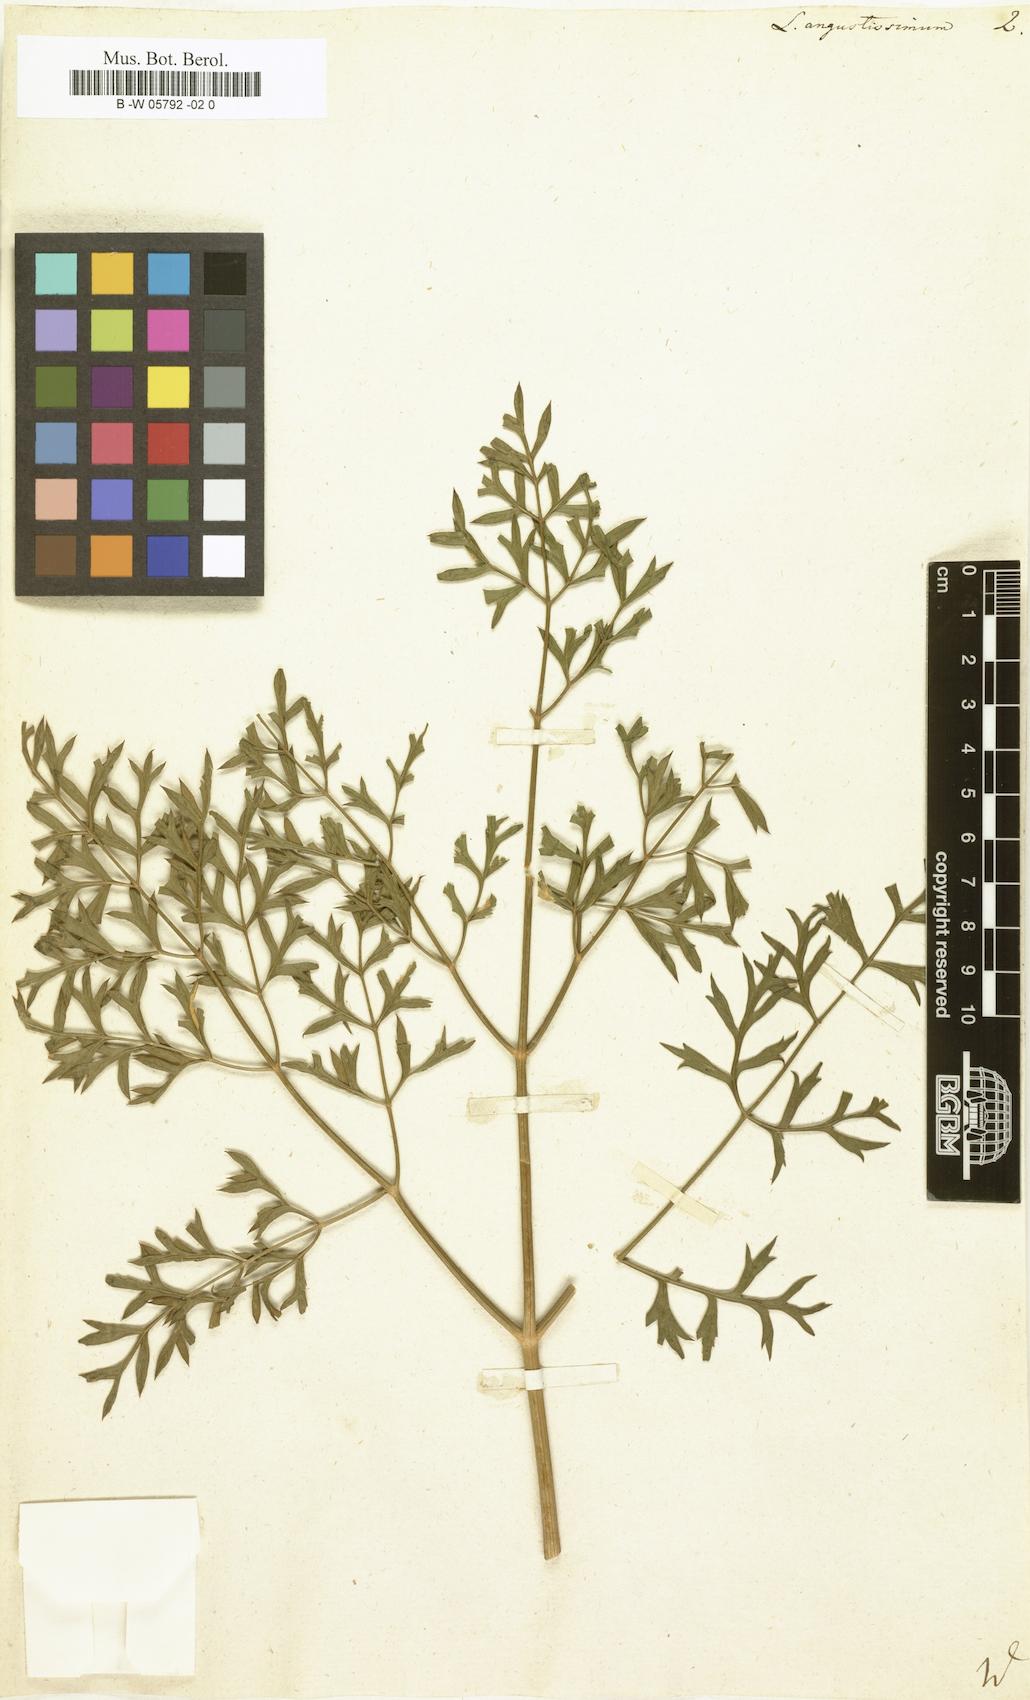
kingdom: Plantae
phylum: Tracheophyta
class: Magnoliopsida
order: Apiales
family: Apiaceae
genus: Laserpitium
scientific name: Laserpitium gallicum
